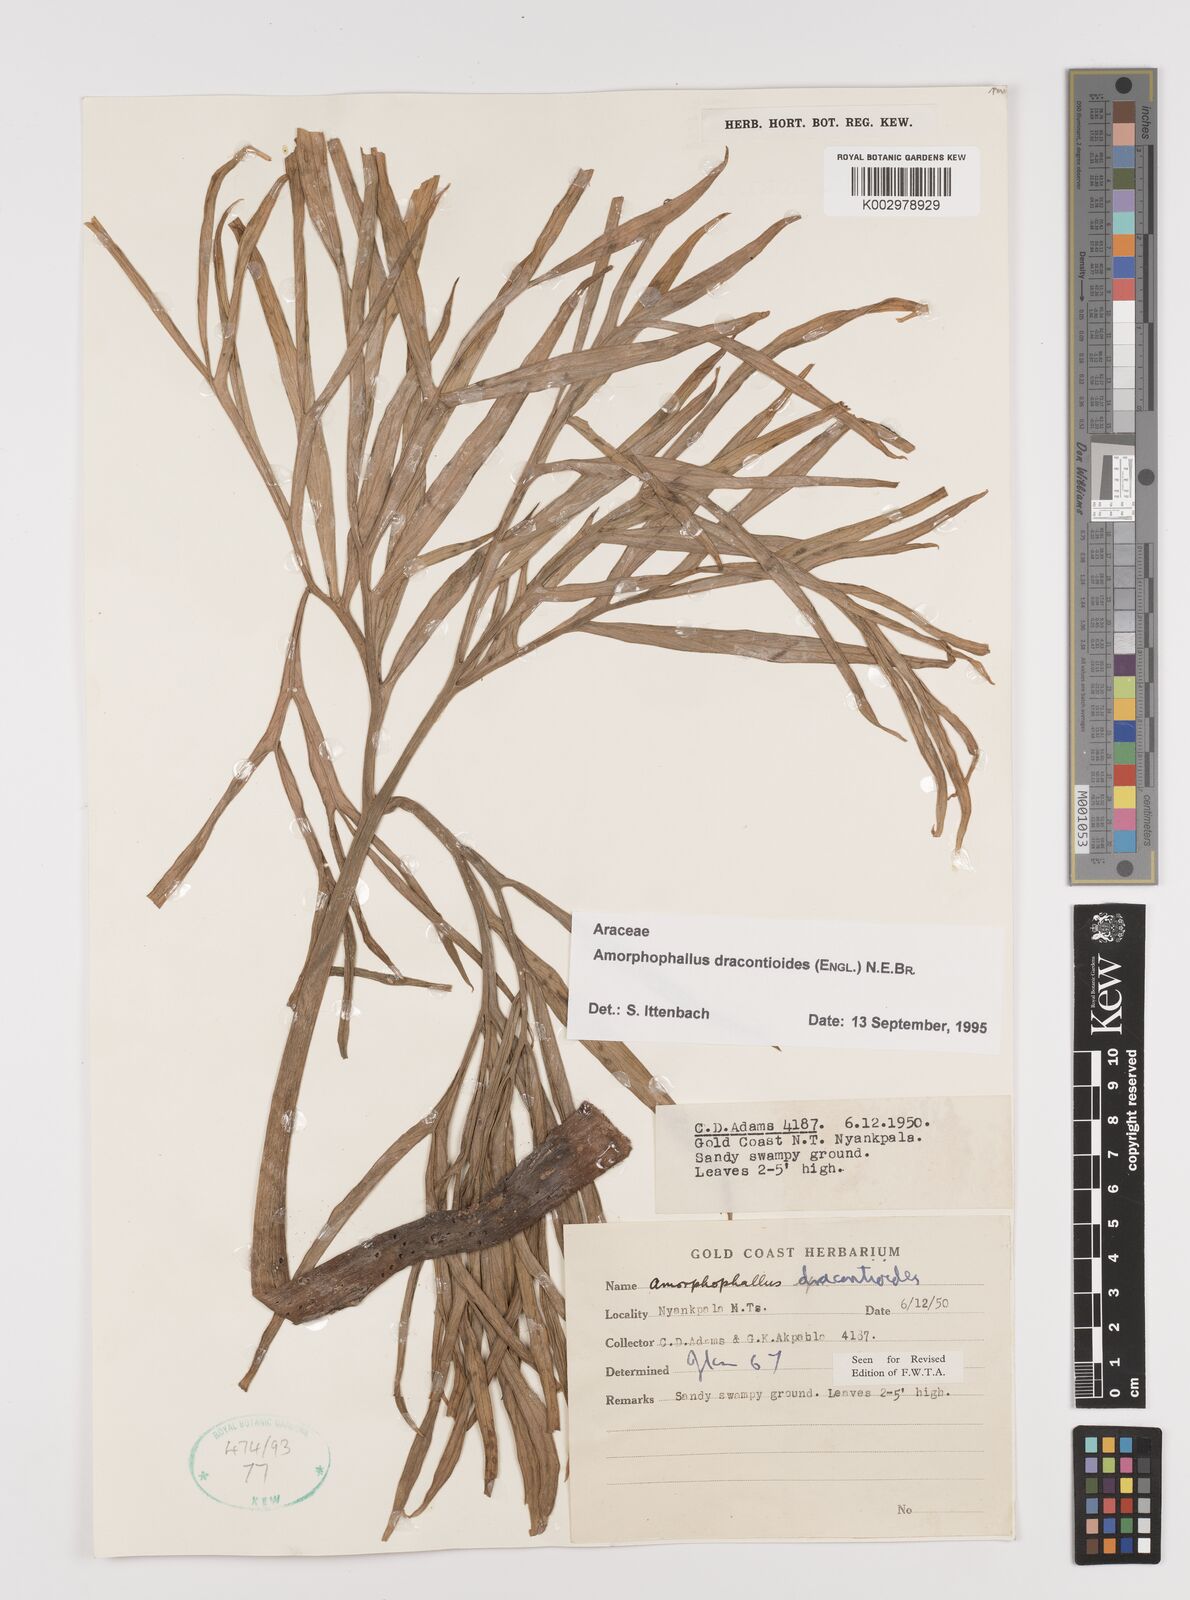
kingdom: Plantae
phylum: Tracheophyta
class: Liliopsida
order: Alismatales
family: Araceae
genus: Amorphophallus
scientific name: Amorphophallus dracontioides
